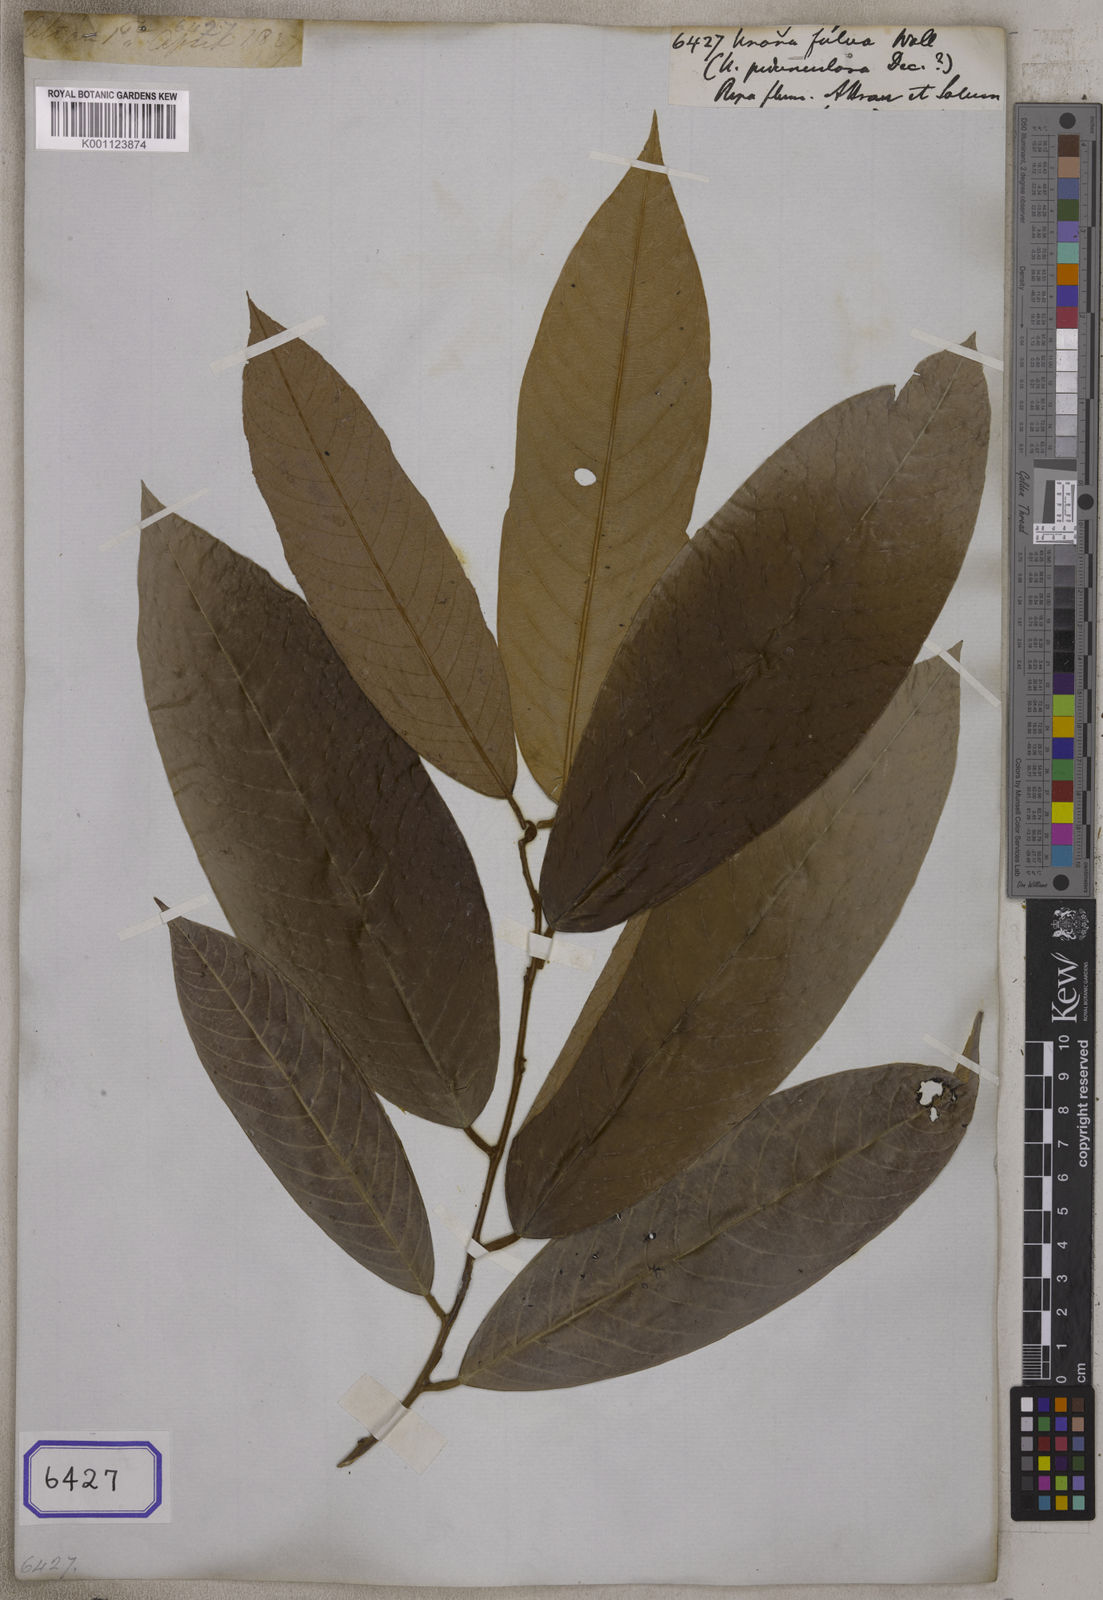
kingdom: Plantae
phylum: Tracheophyta
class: Magnoliopsida
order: Magnoliales
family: Annonaceae
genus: Desmos
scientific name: Desmos cochinchinensis
